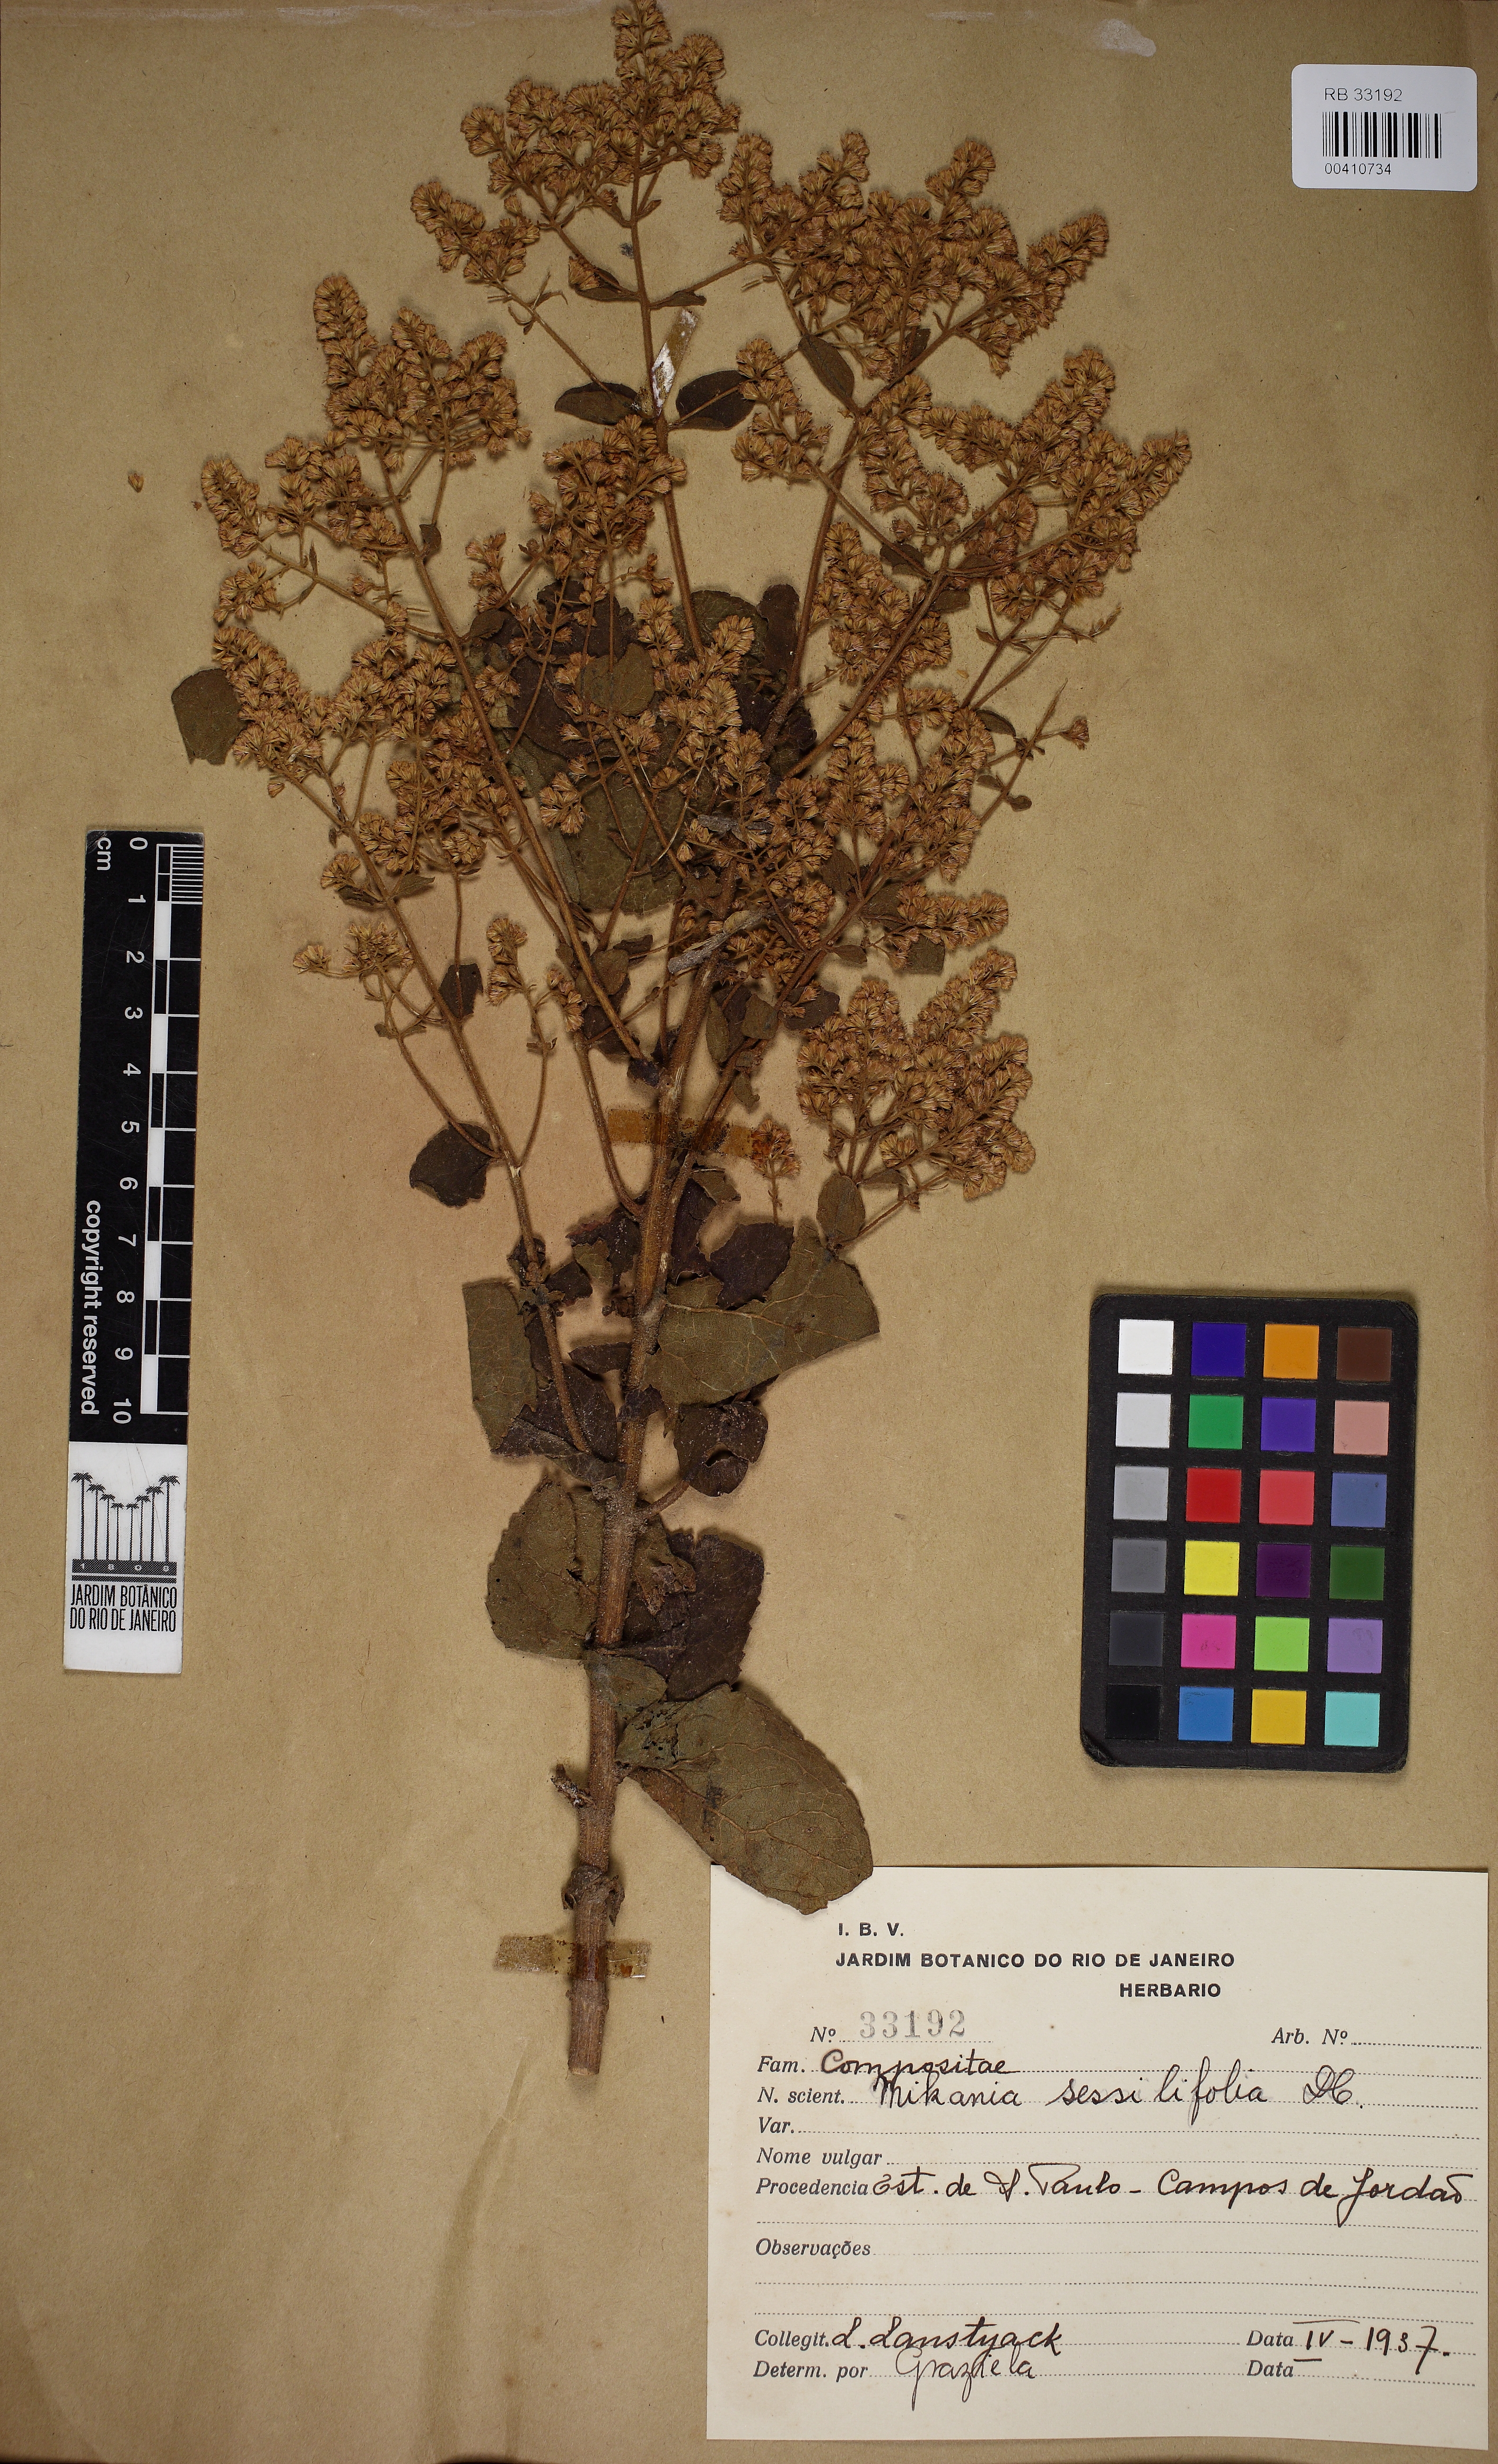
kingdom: Plantae
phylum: Tracheophyta
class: Magnoliopsida
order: Asterales
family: Asteraceae
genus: Mikania
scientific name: Mikania sessilifolia
